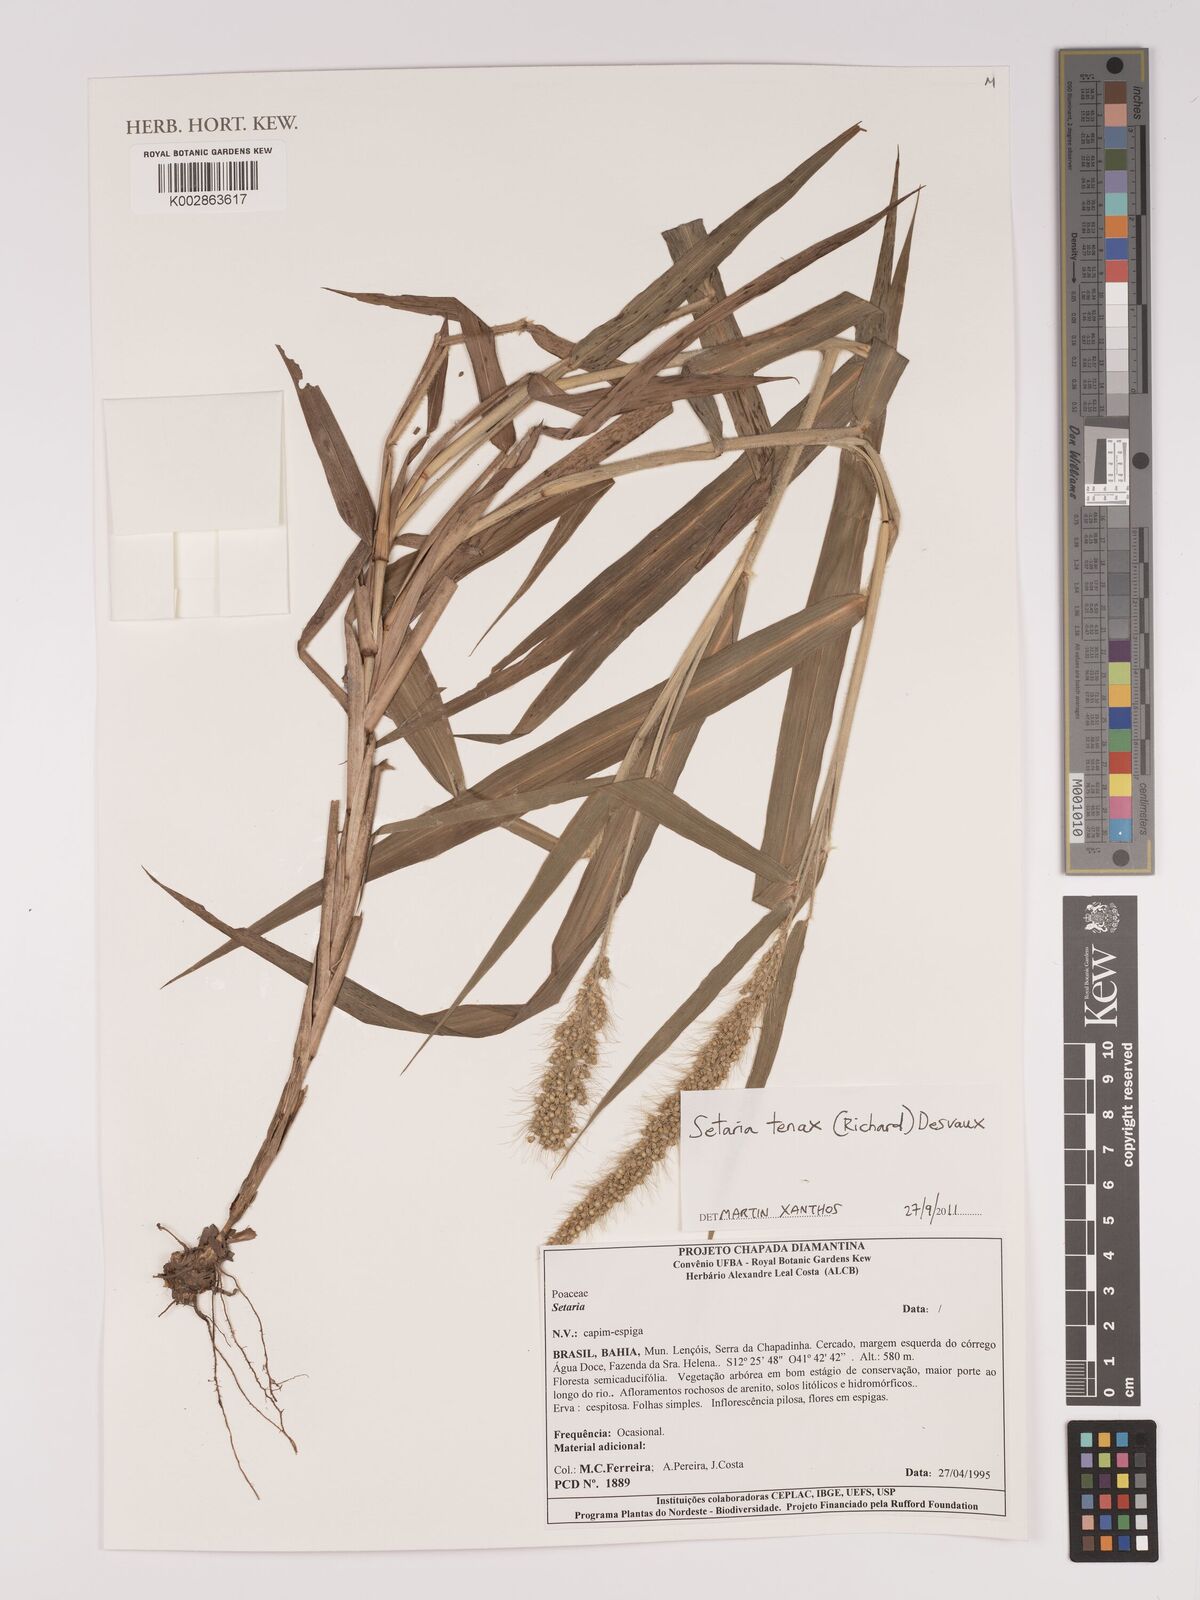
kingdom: Plantae
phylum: Tracheophyta
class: Liliopsida
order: Poales
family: Poaceae
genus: Setaria
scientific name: Setaria tenax
